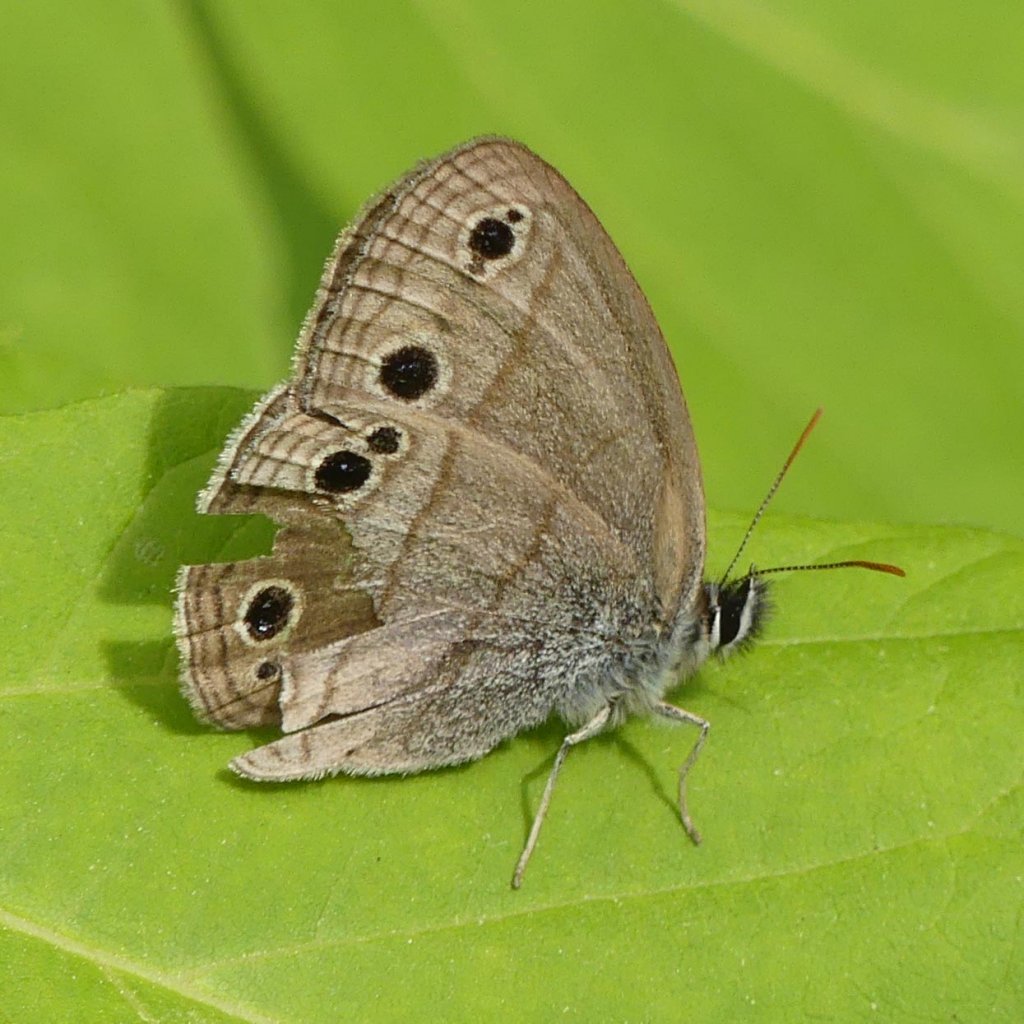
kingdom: Animalia
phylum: Arthropoda
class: Insecta
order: Lepidoptera
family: Nymphalidae
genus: Euptychia
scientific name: Euptychia cymela
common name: Little Wood Satyr
